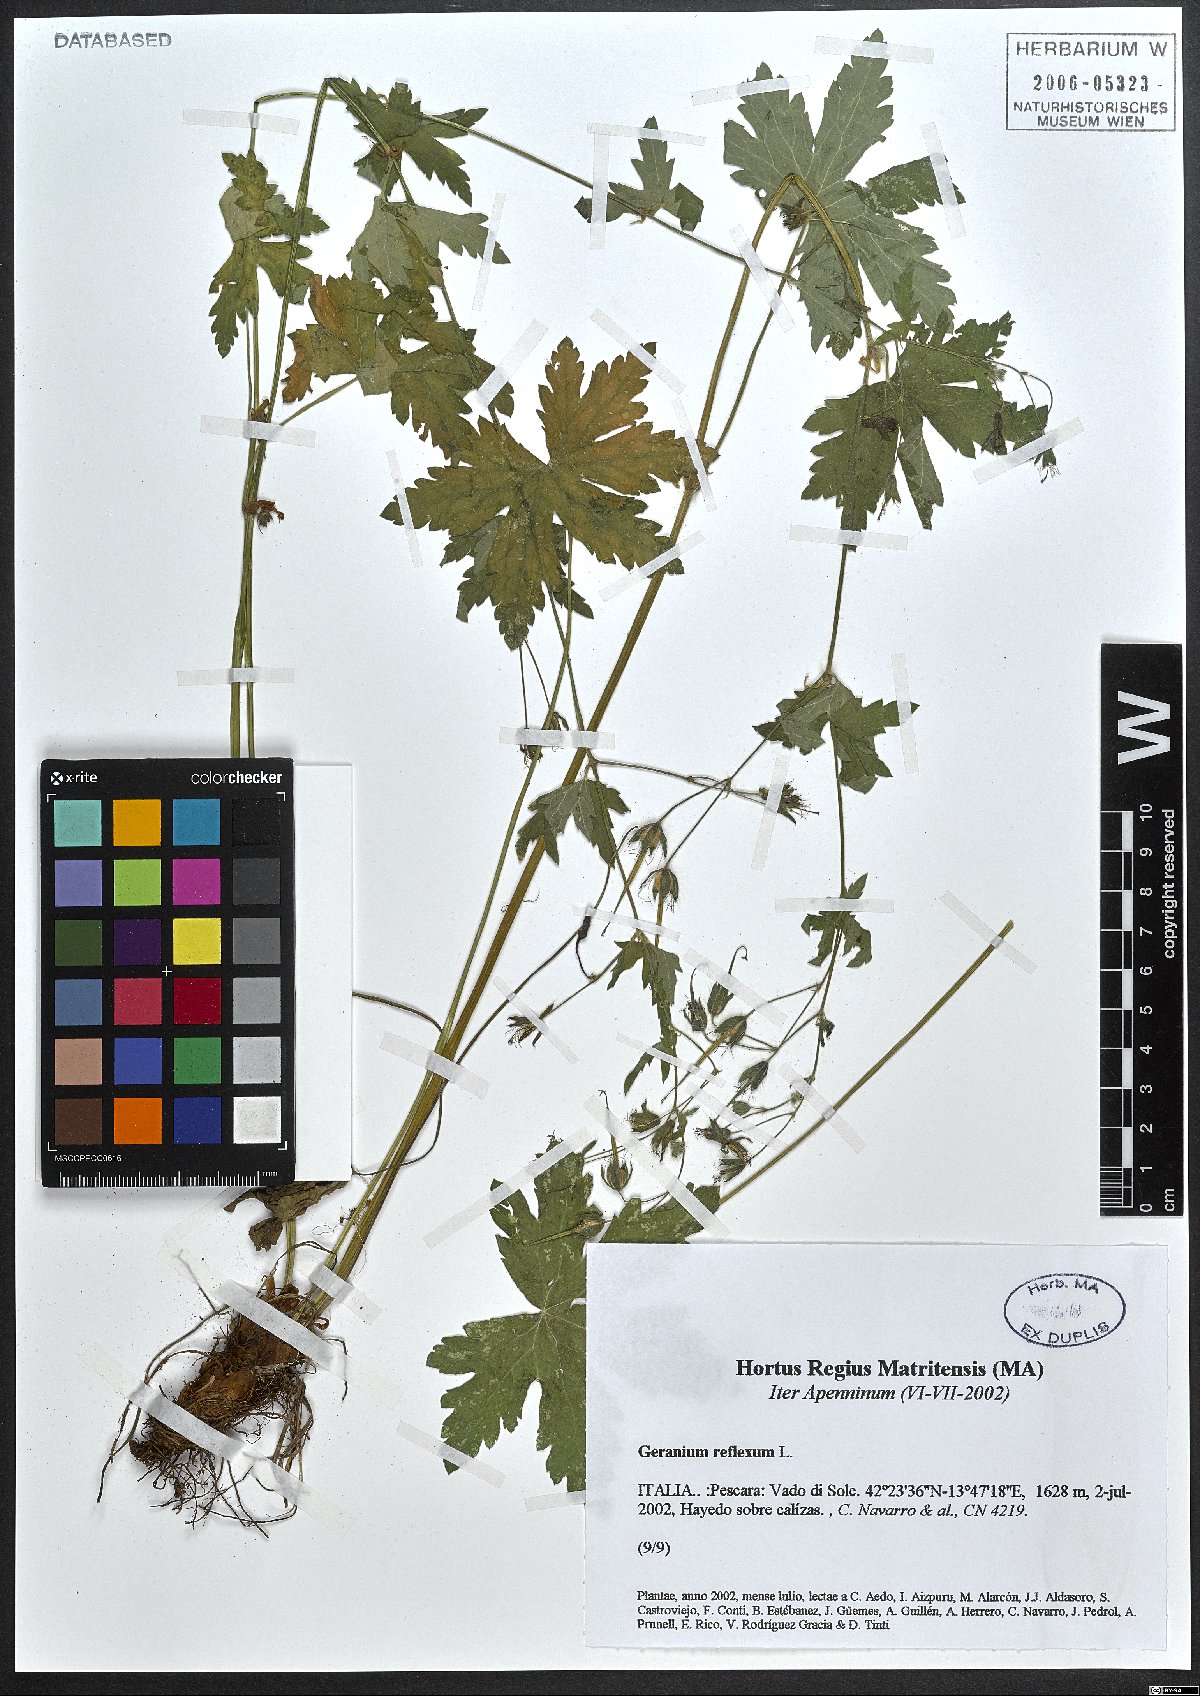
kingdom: Plantae
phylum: Tracheophyta
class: Magnoliopsida
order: Geraniales
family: Geraniaceae
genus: Geranium
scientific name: Geranium reflexum
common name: Reflexed crane's-bill
